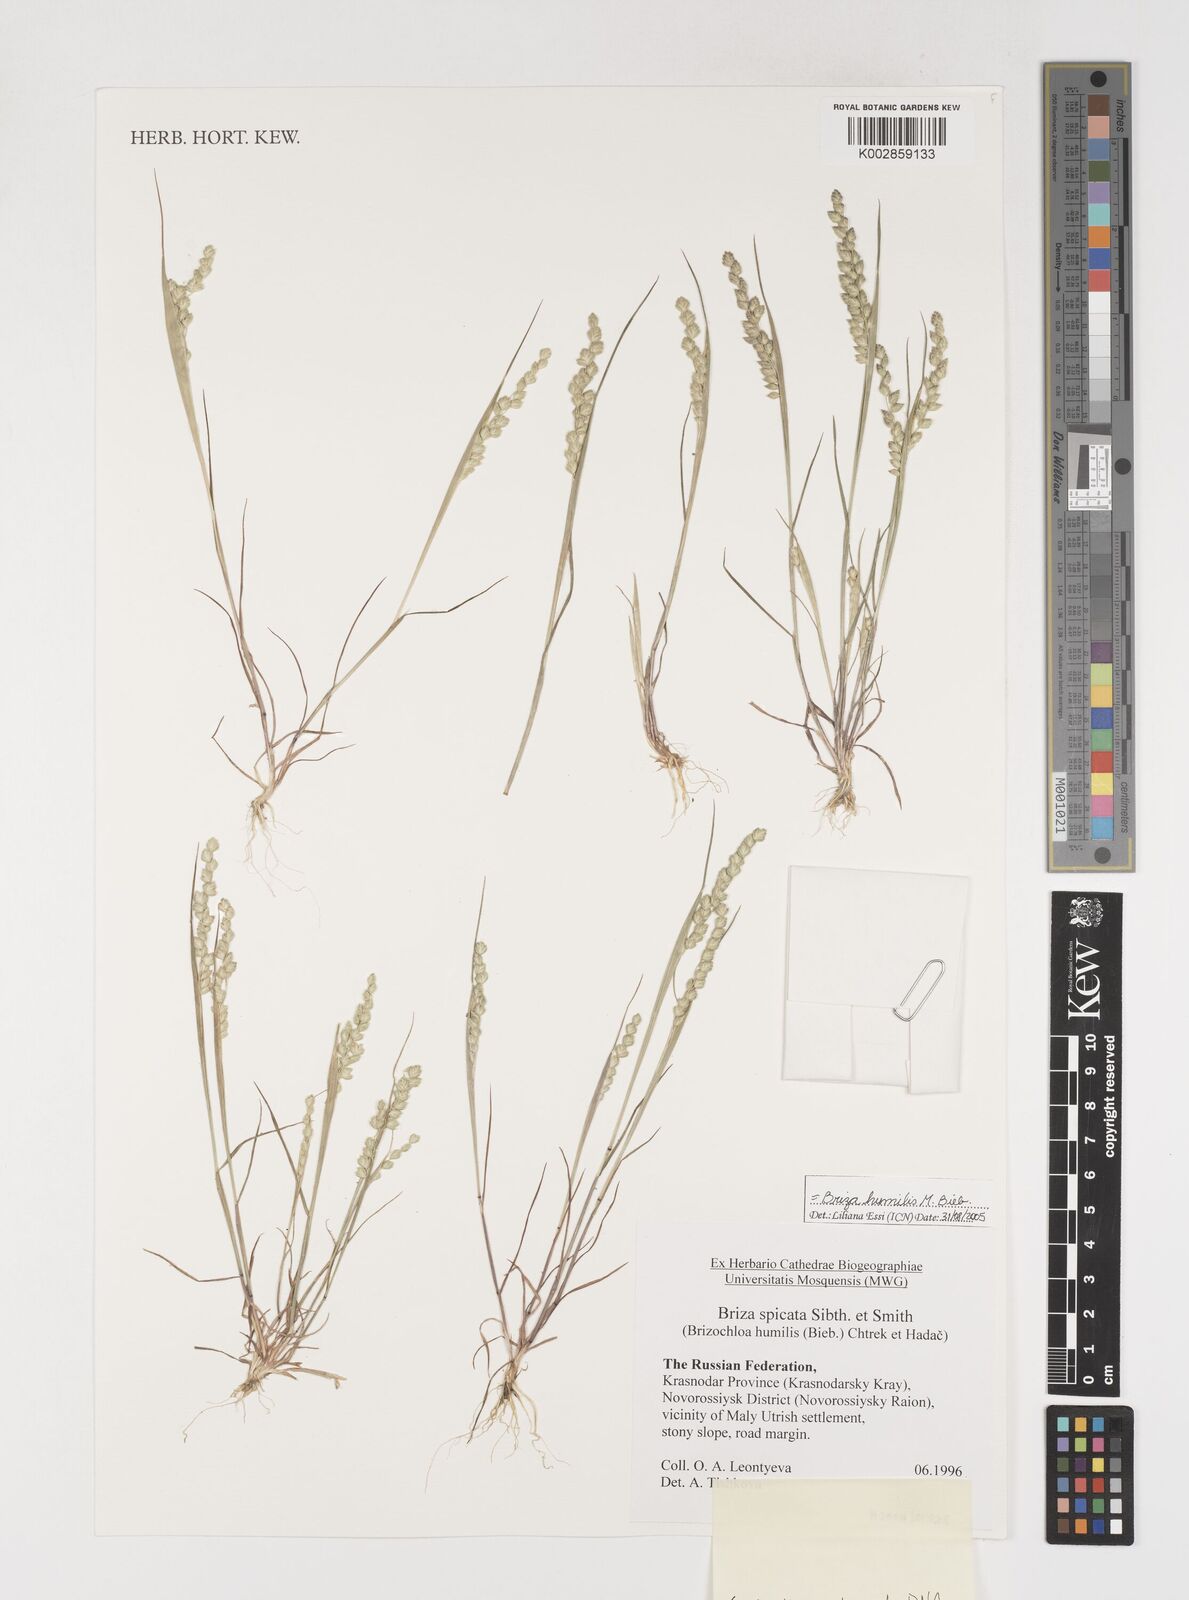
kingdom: Plantae
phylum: Tracheophyta
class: Liliopsida
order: Poales
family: Poaceae
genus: Briza
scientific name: Briza humilis
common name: Spiked quaking grass
